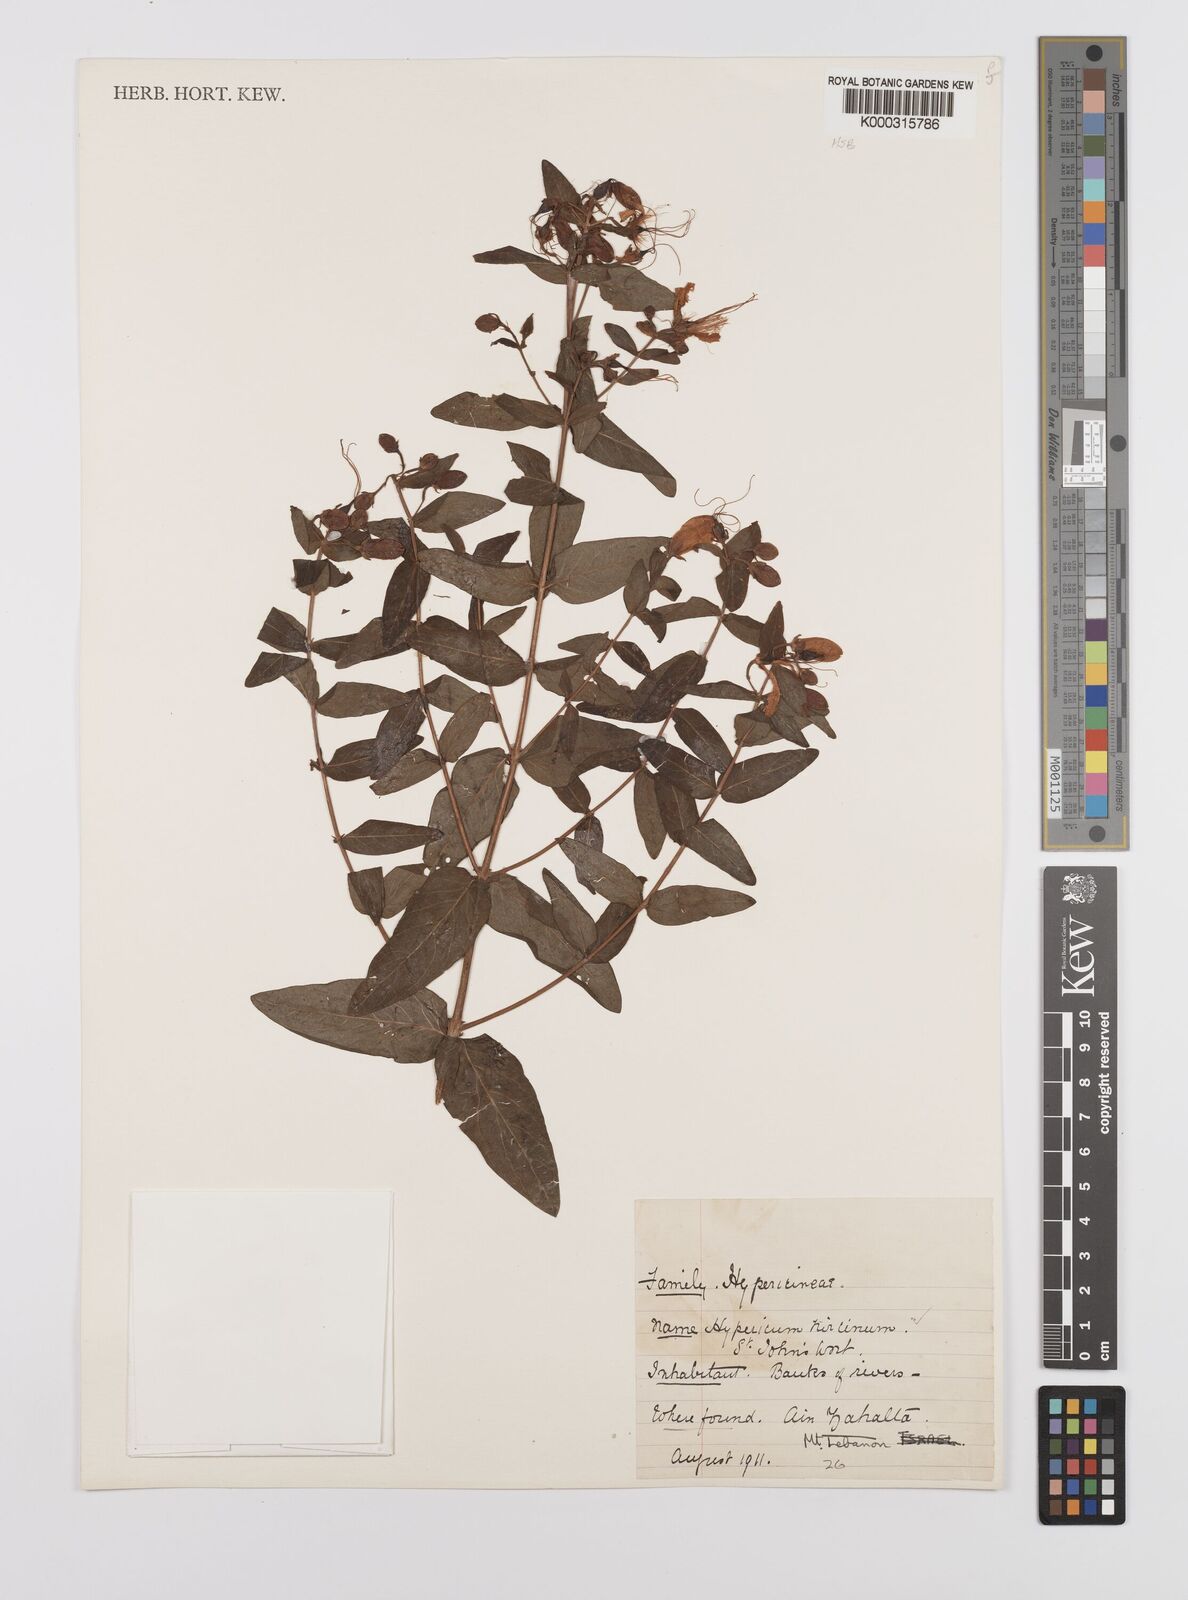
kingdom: Plantae
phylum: Tracheophyta
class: Magnoliopsida
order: Malpighiales
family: Hypericaceae
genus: Hypericum
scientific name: Hypericum hircinum
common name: Stinking tutsan
